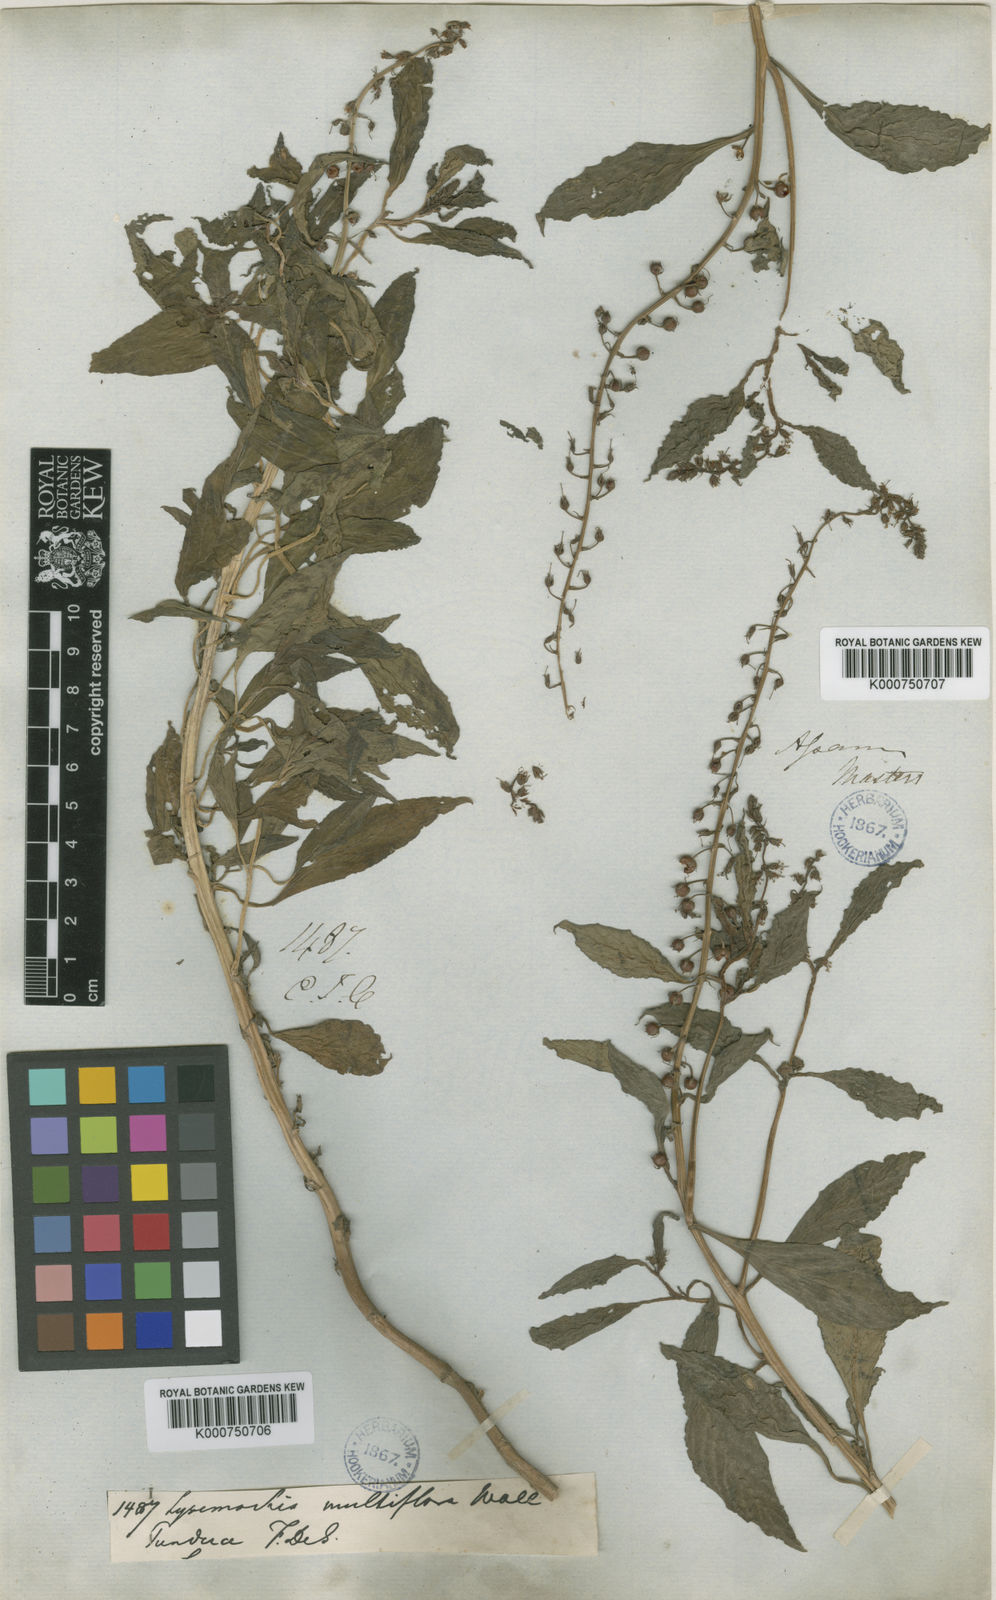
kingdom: Plantae
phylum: Tracheophyta
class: Magnoliopsida
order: Ericales
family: Primulaceae
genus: Lysimachia
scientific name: Lysimachia decurrens
